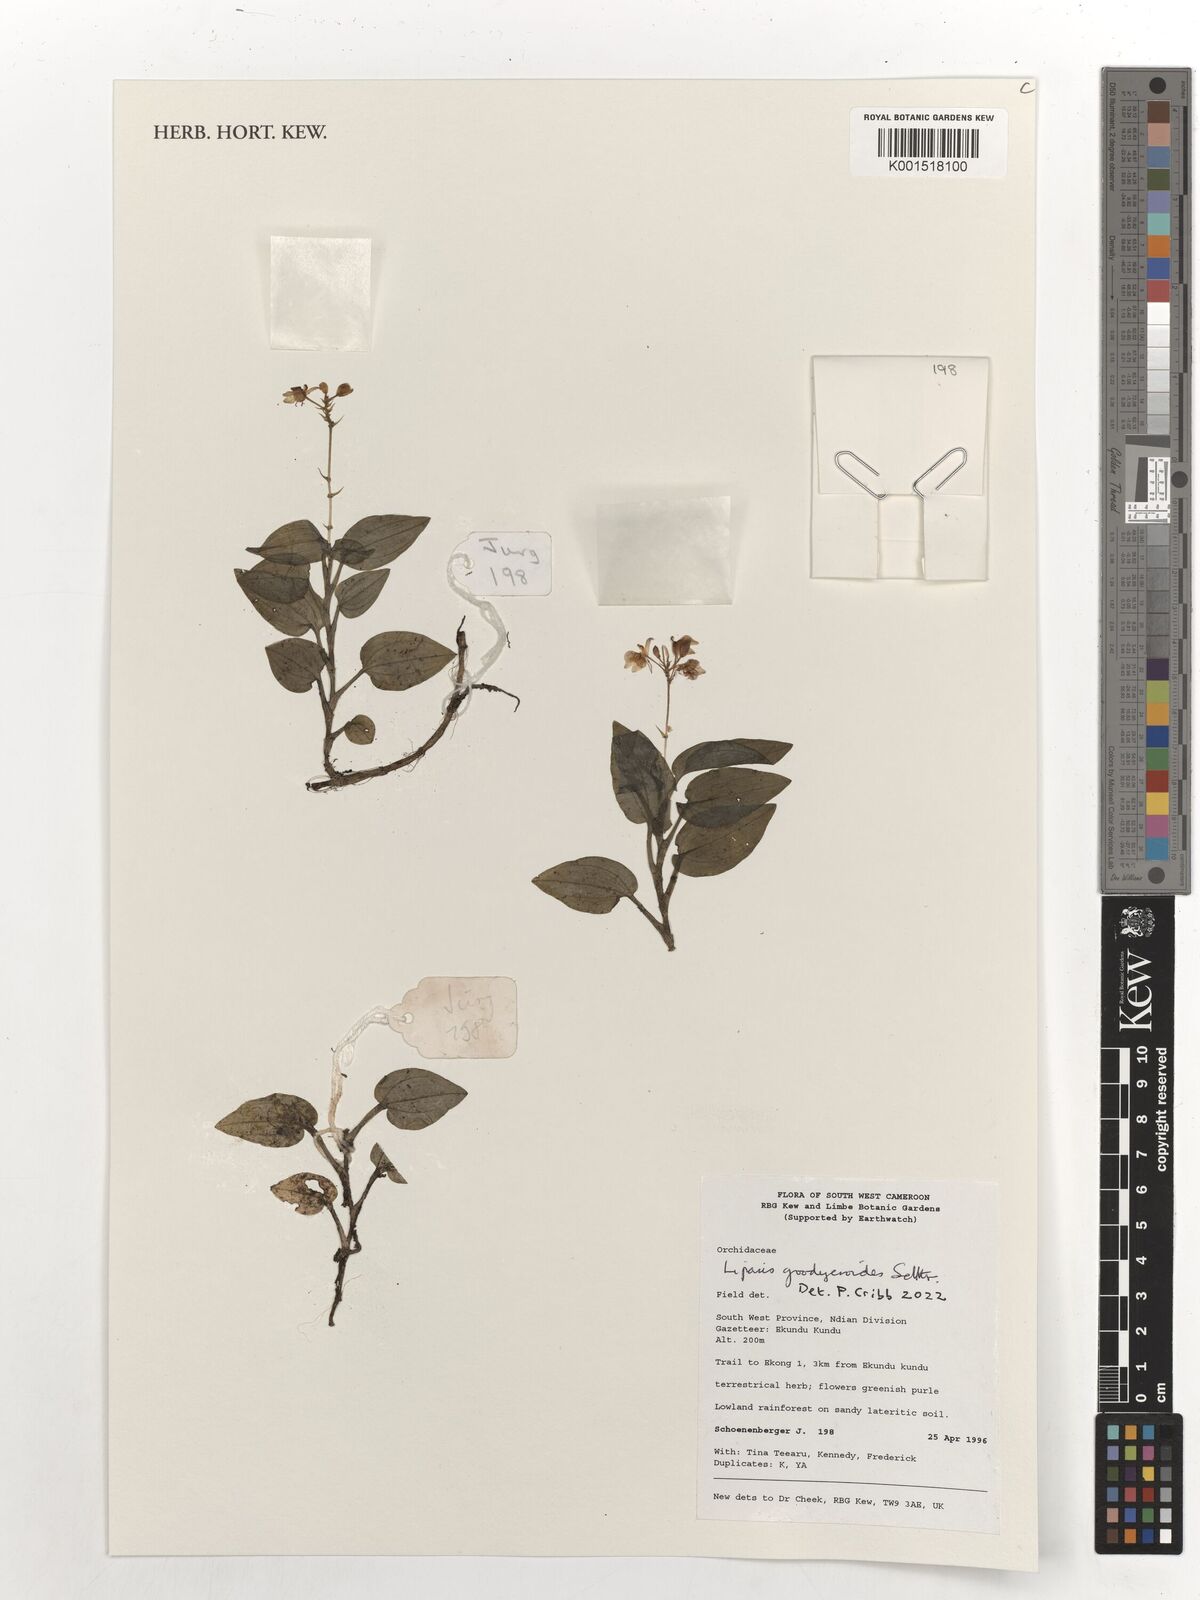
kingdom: Plantae
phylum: Tracheophyta
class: Liliopsida
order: Asparagales
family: Orchidaceae
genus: Liparis
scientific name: Liparis goodyeroides
